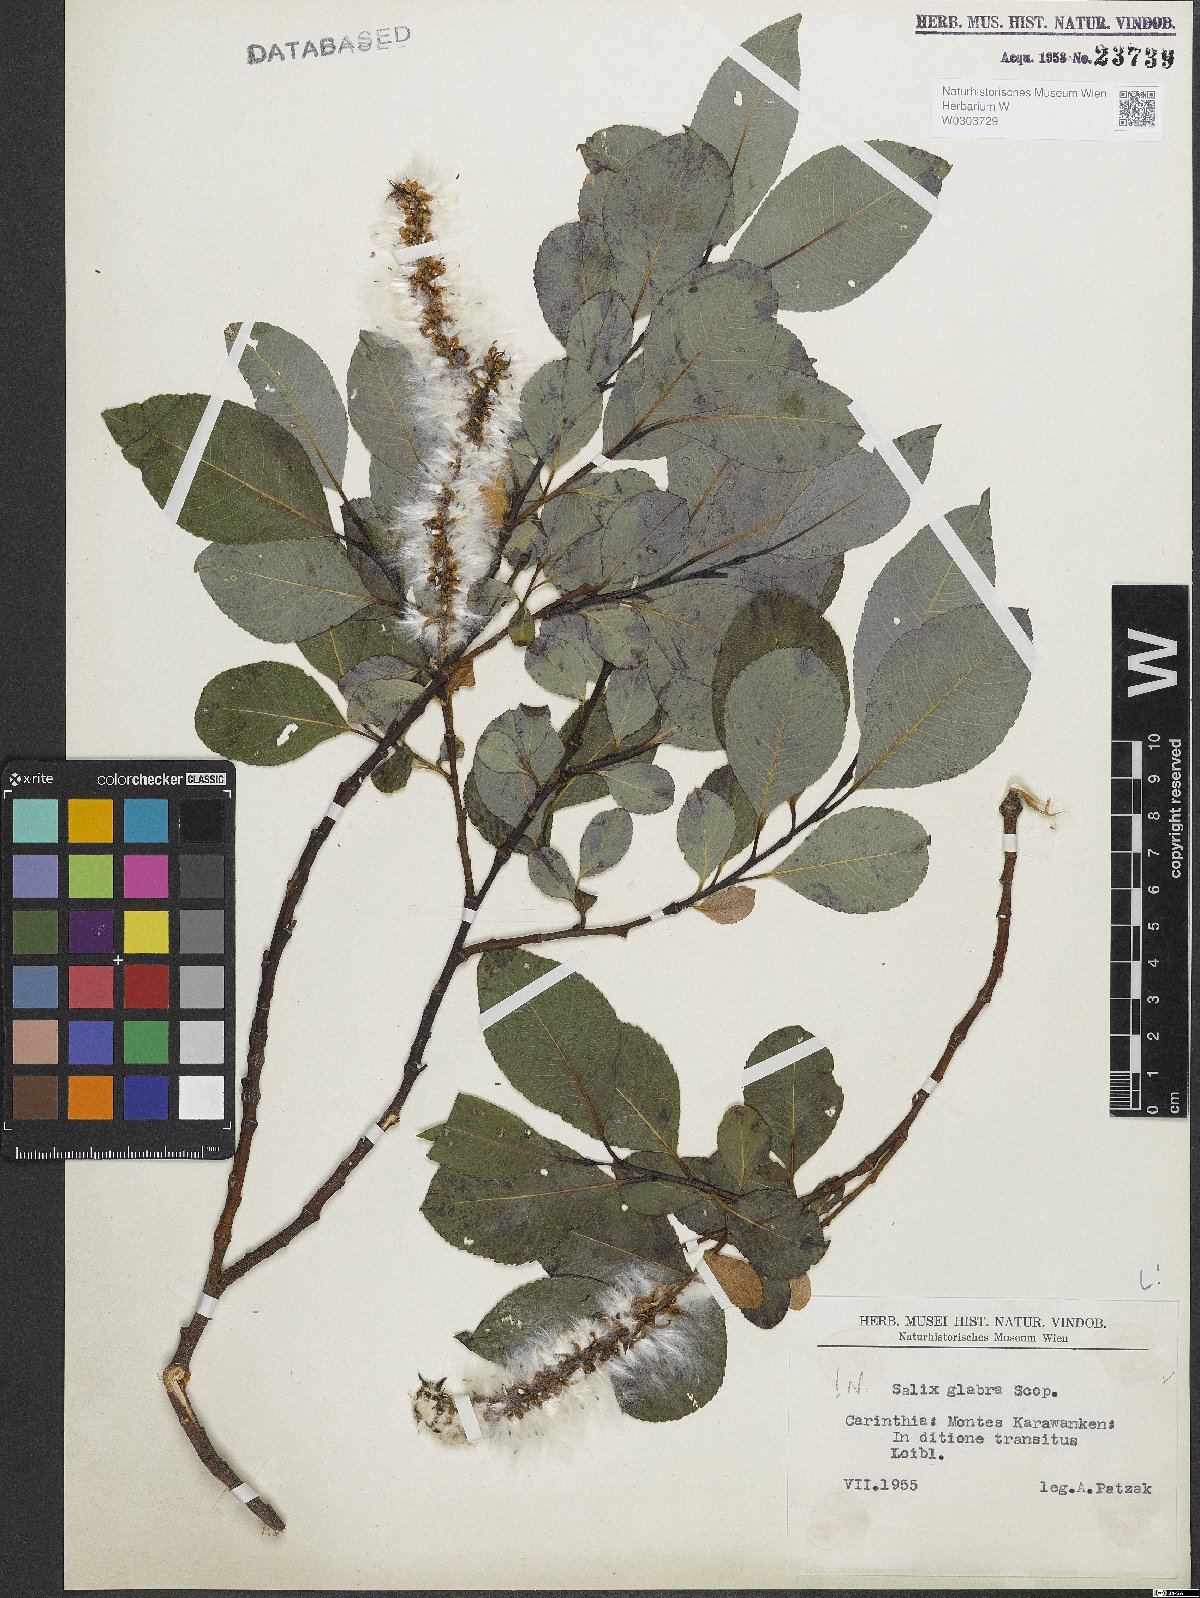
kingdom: Plantae
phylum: Tracheophyta
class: Magnoliopsida
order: Malpighiales
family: Salicaceae
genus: Salix
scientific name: Salix glabra
